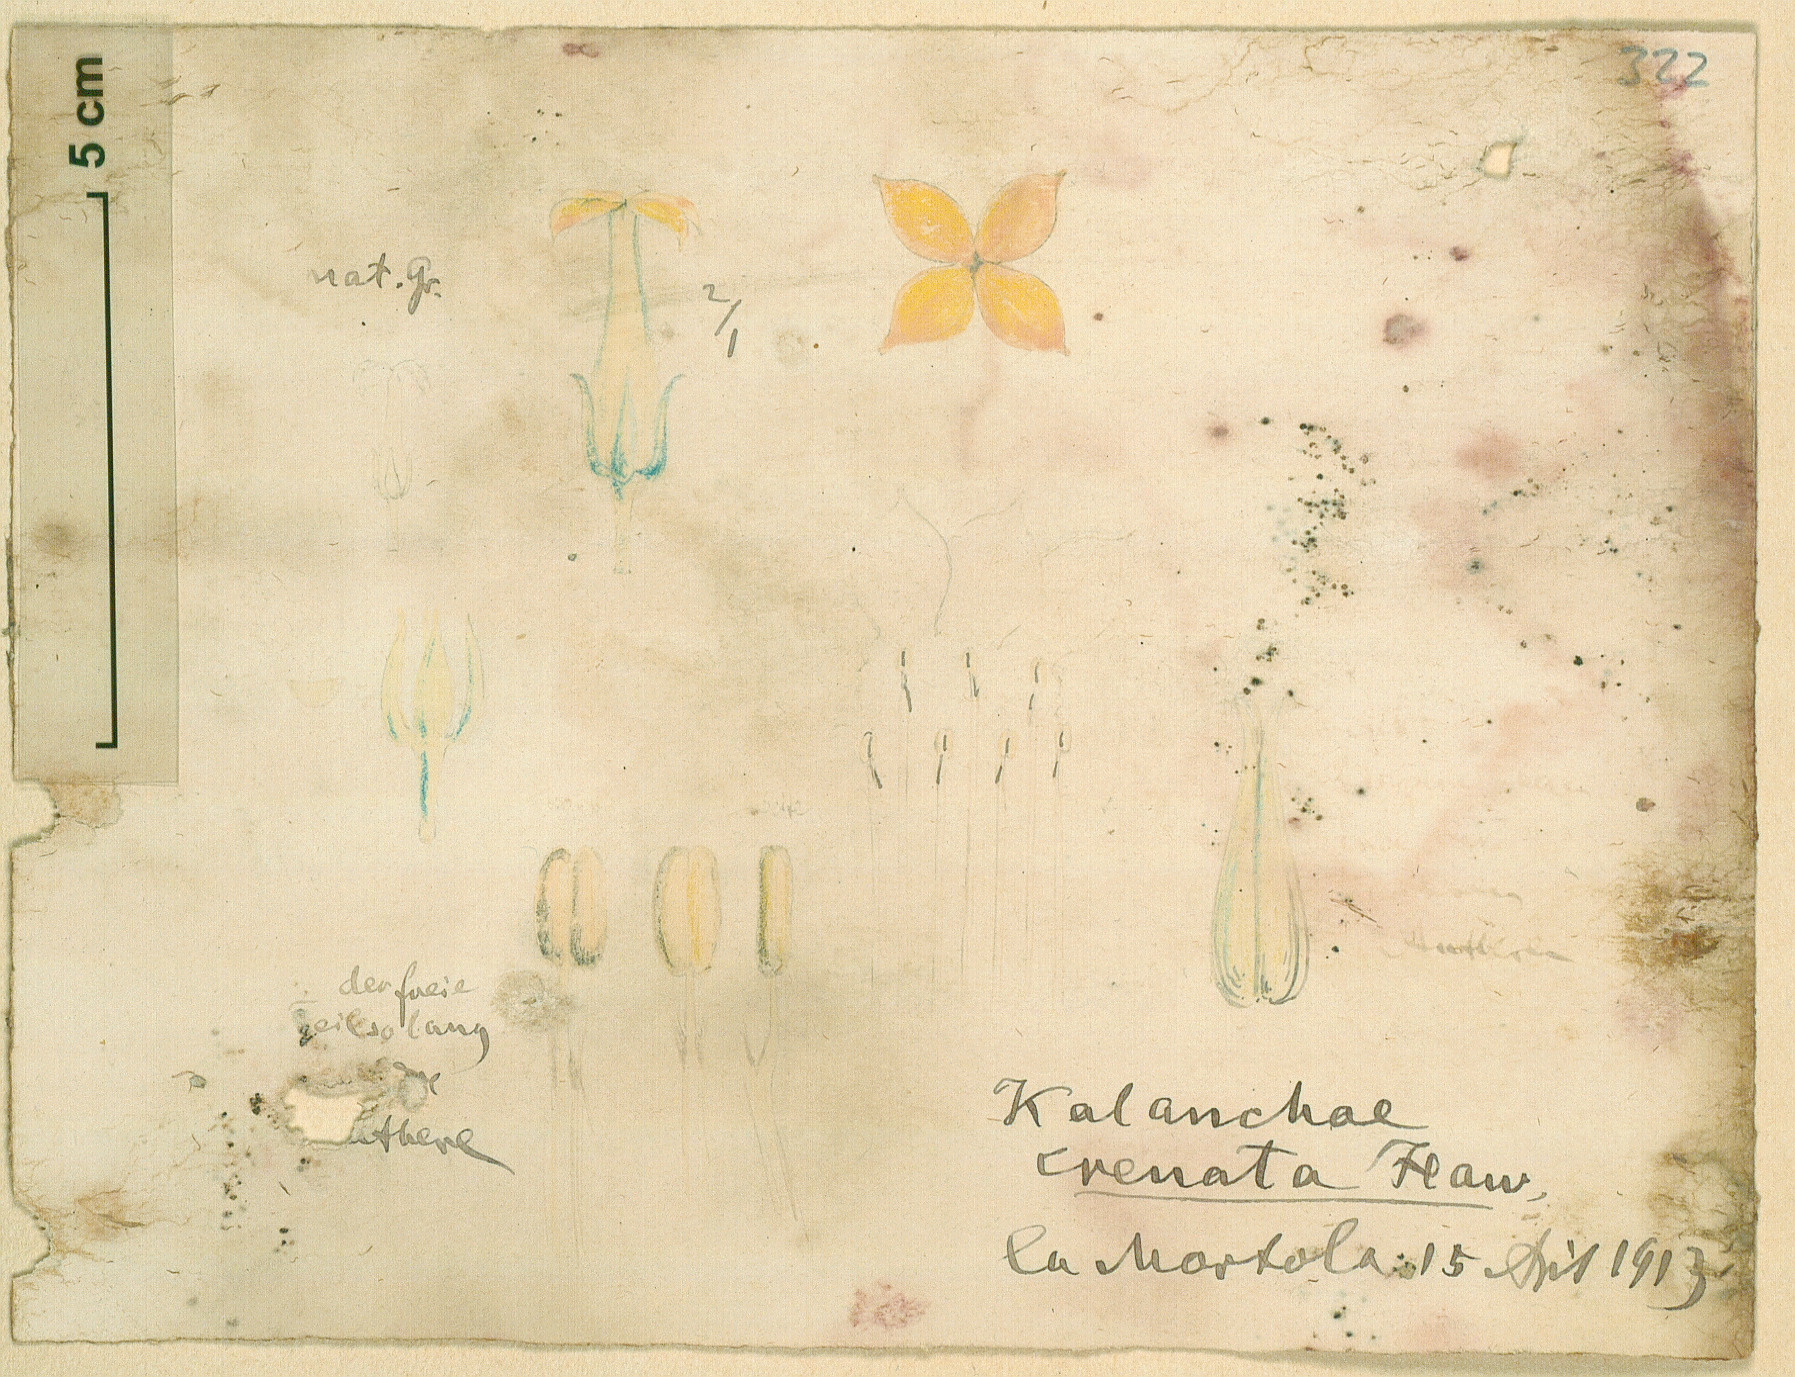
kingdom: Plantae
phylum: Tracheophyta
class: Magnoliopsida
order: Saxifragales
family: Crassulaceae
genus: Kalanchoe
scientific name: Kalanchoe crenata
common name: Neverdie
